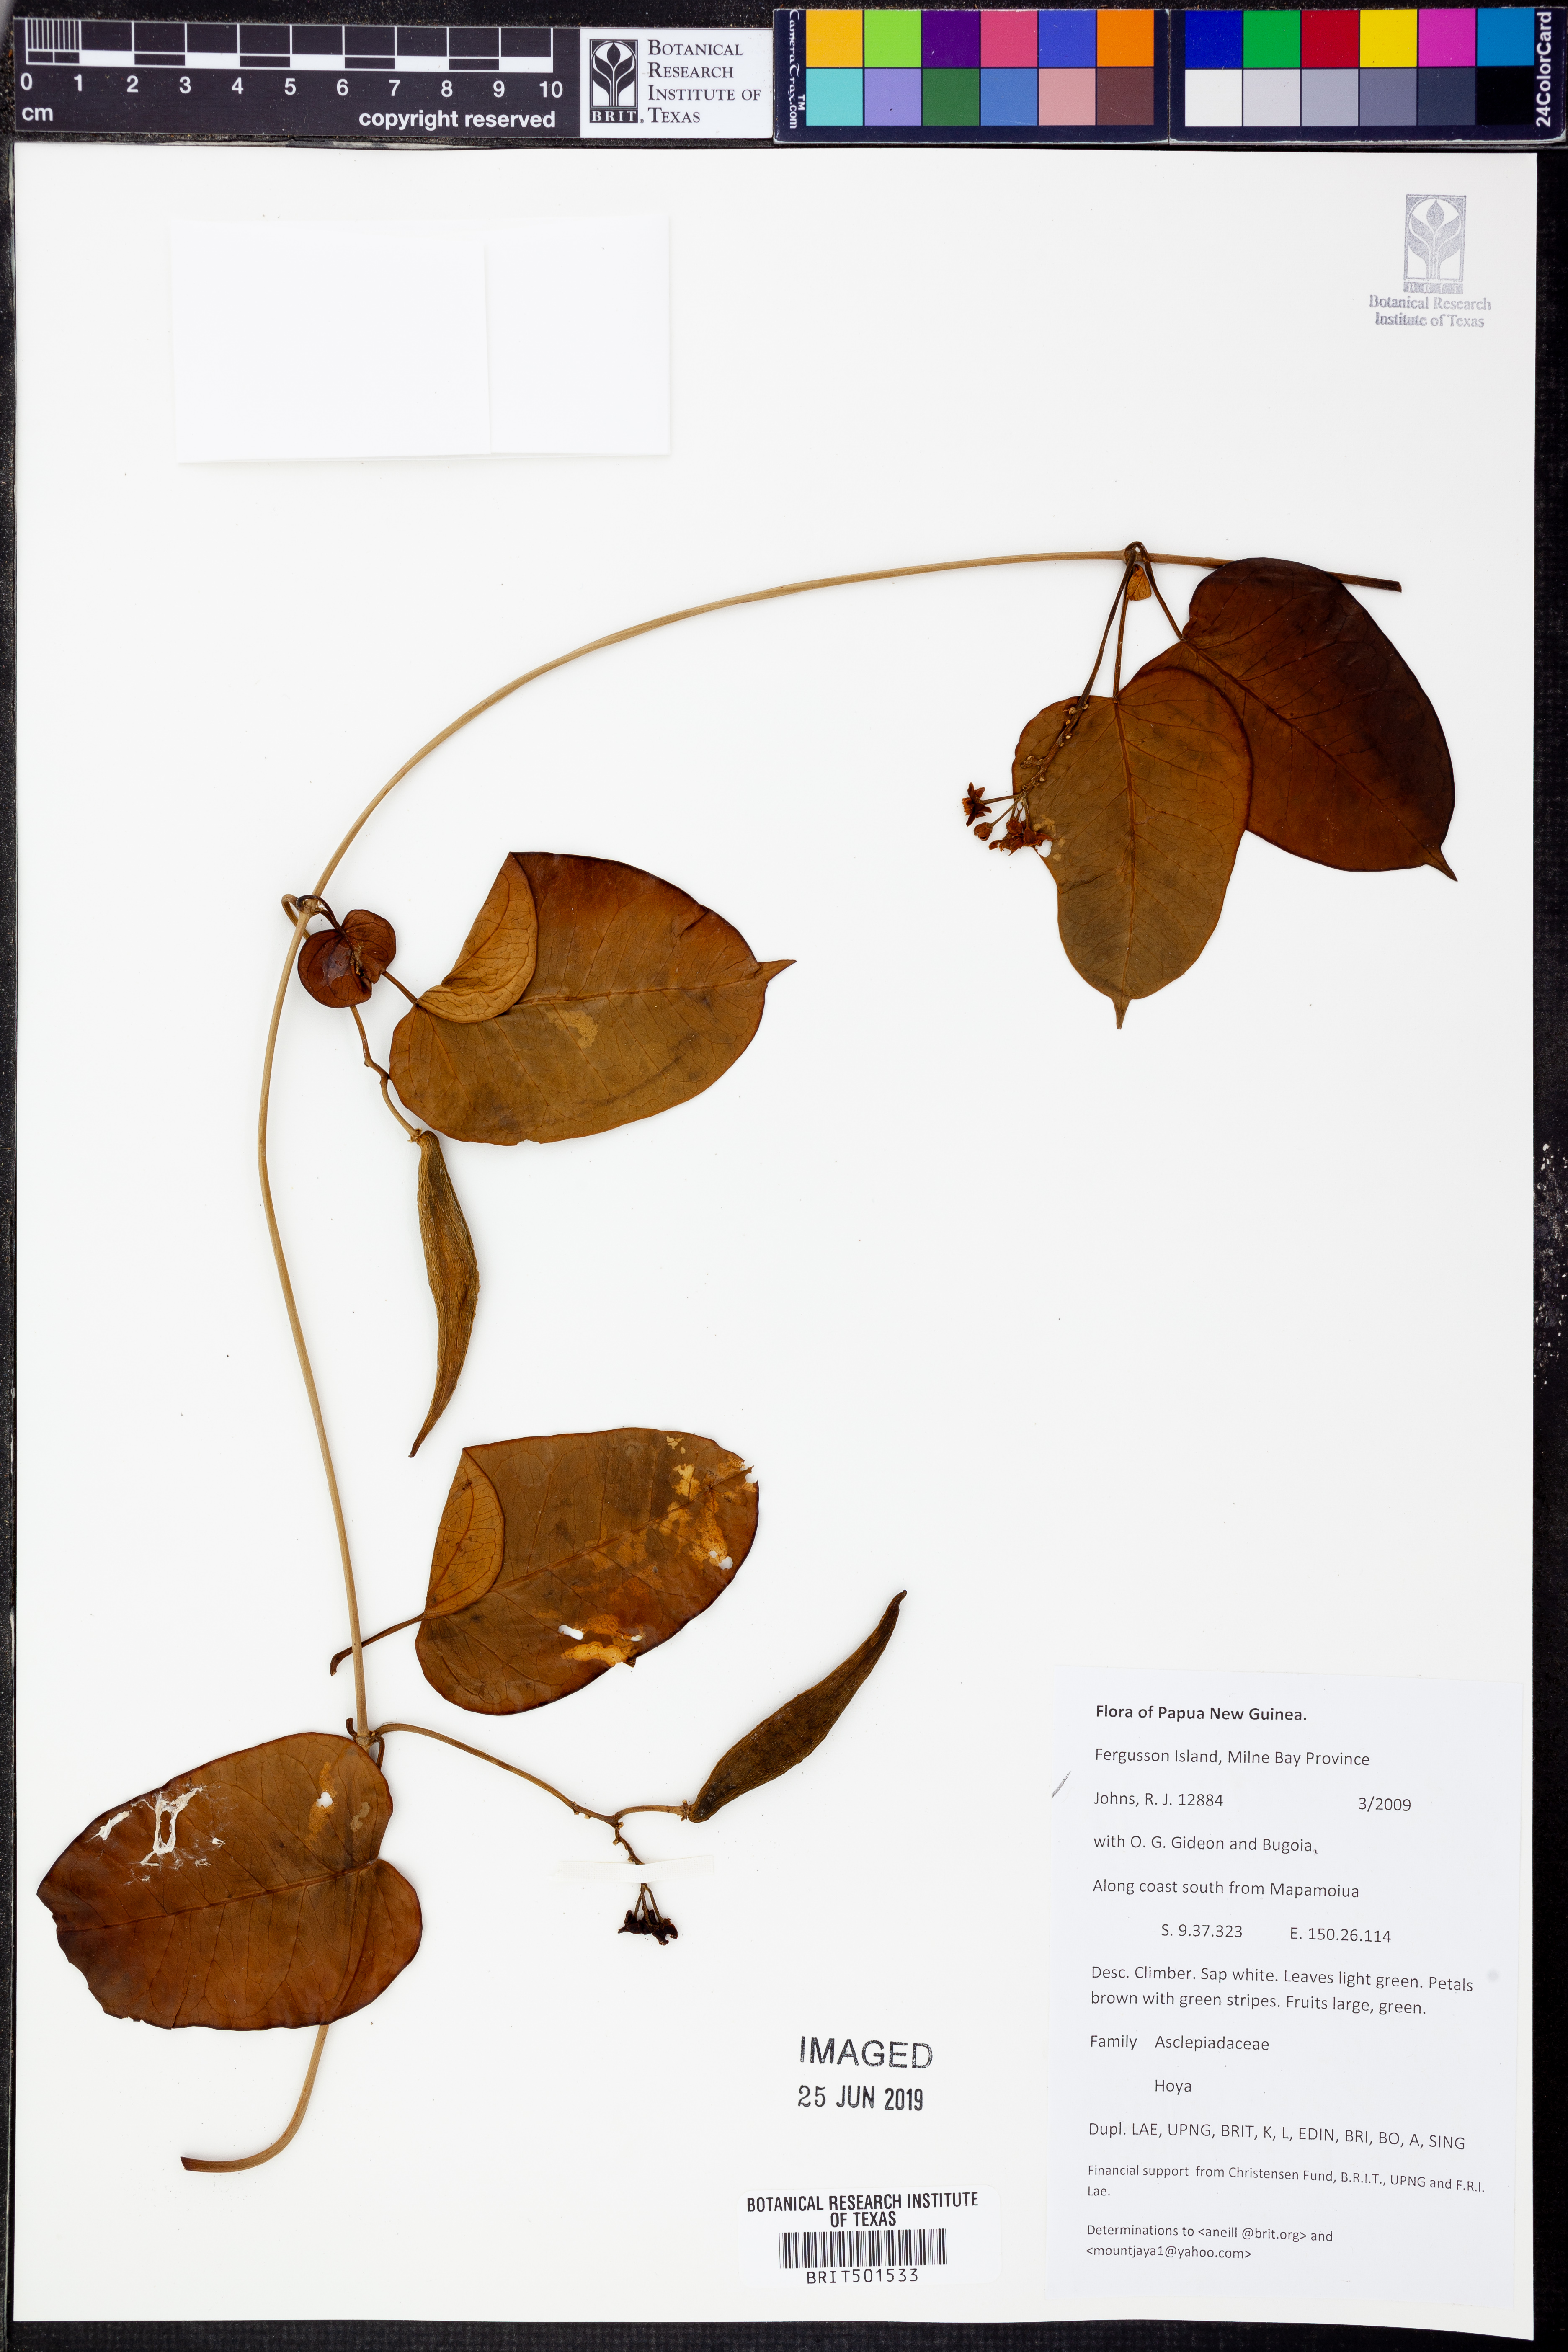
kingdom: Plantae
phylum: Tracheophyta
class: Magnoliopsida
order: Gentianales
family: Apocynaceae
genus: Hoya
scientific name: Hoya
